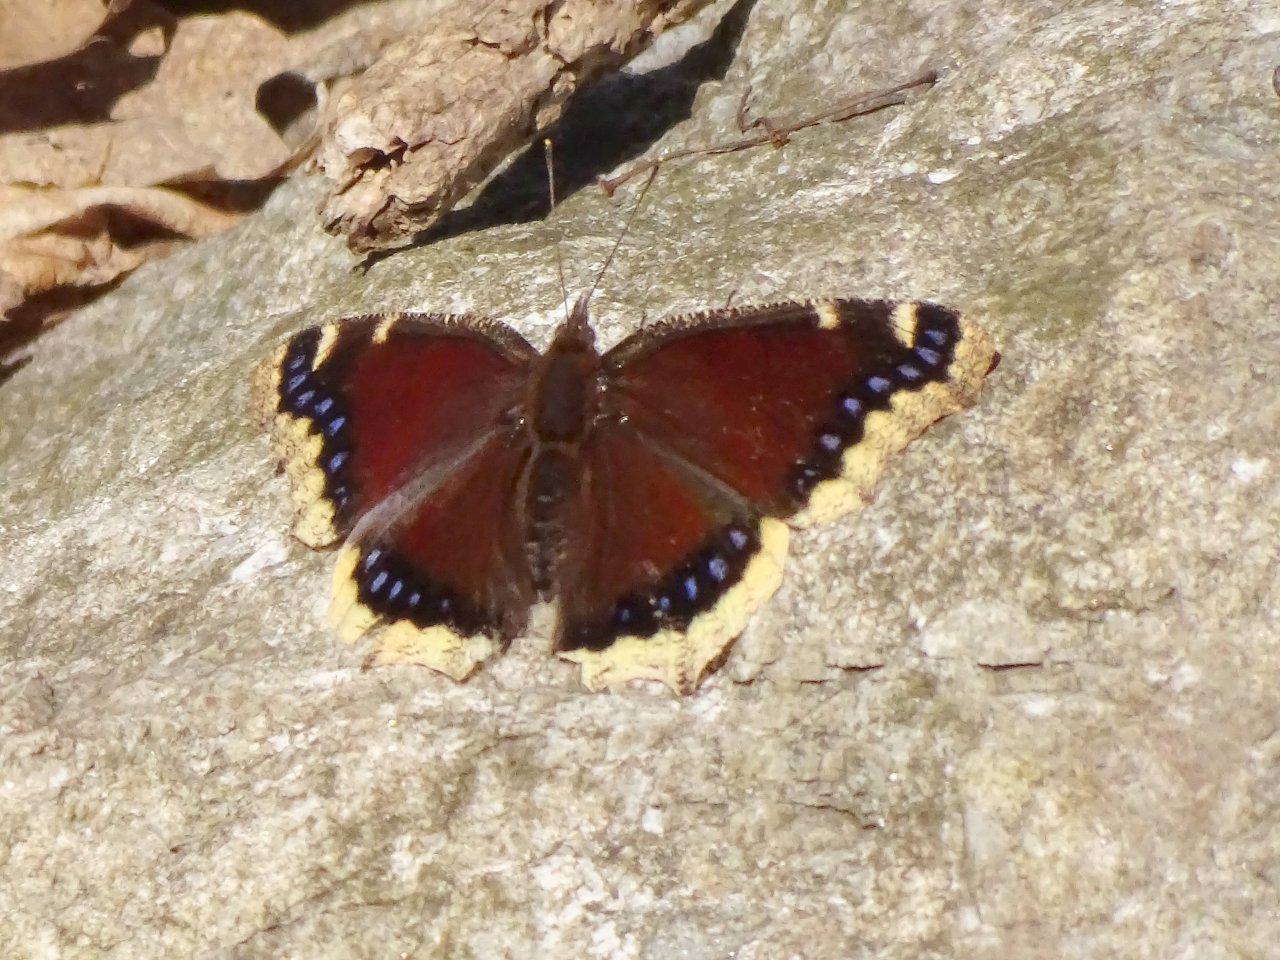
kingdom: Animalia
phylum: Arthropoda
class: Insecta
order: Lepidoptera
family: Nymphalidae
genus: Nymphalis
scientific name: Nymphalis antiopa
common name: Mourning Cloak
